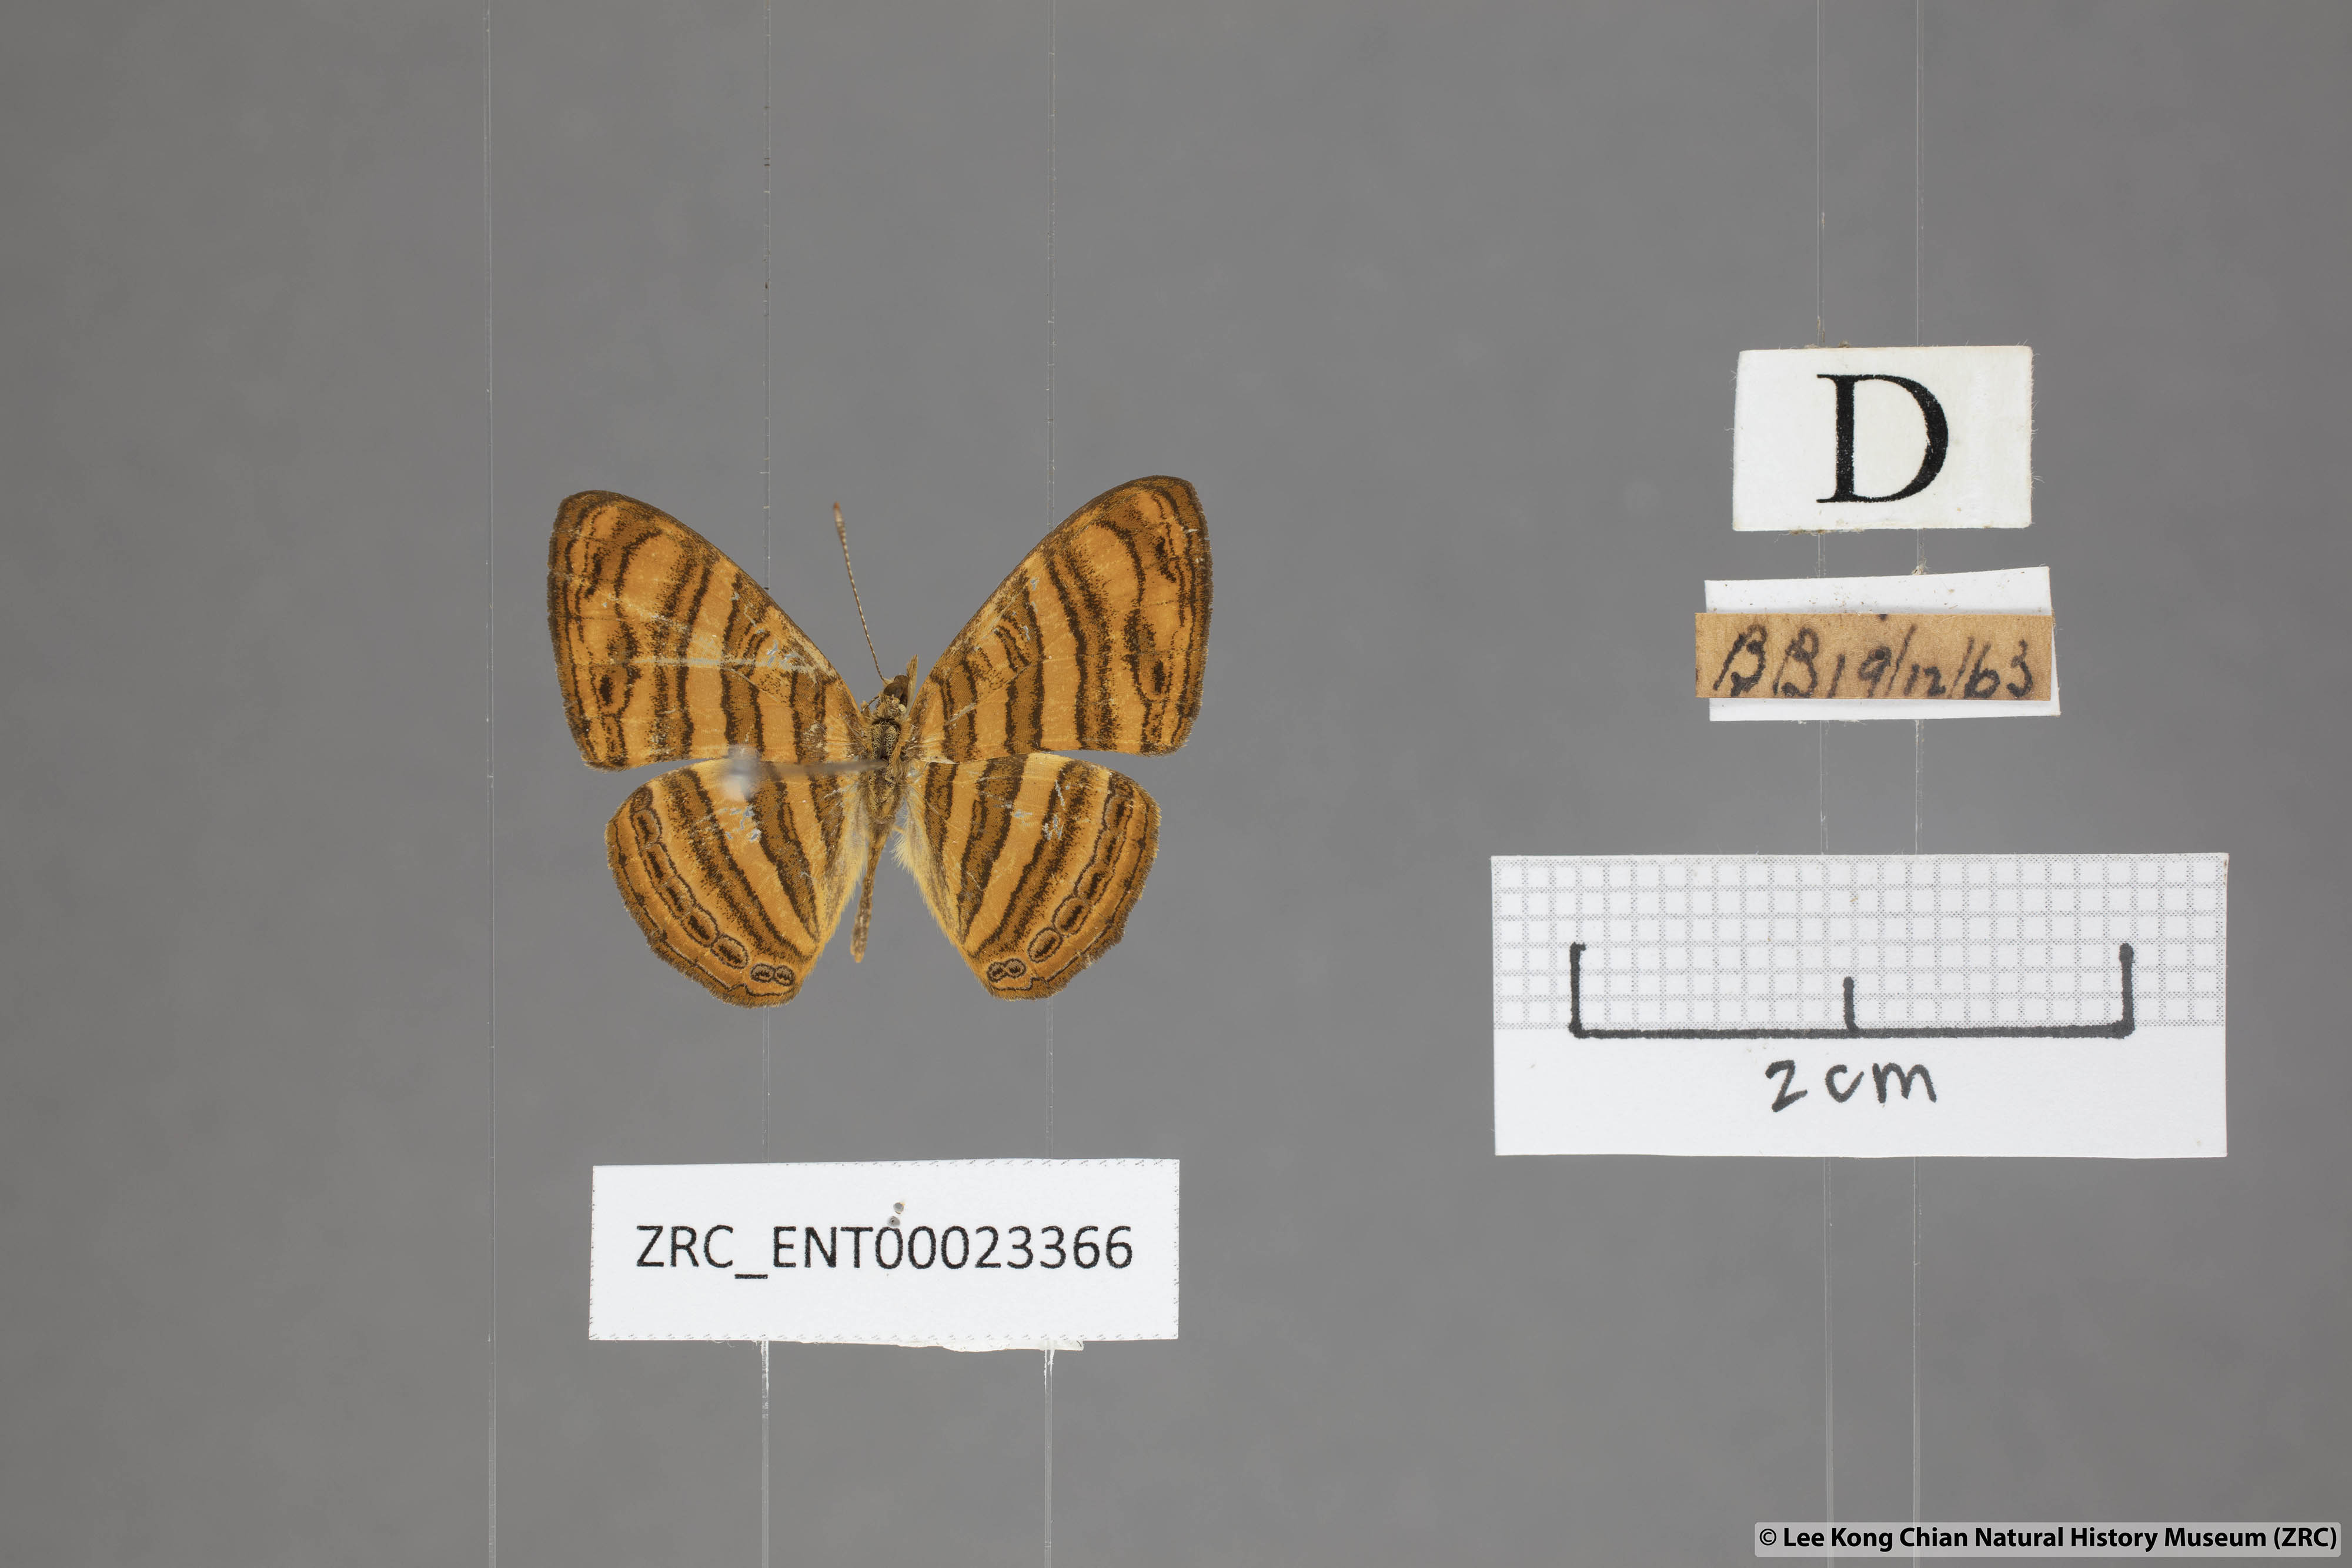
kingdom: Animalia
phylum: Arthropoda
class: Insecta
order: Lepidoptera
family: Nymphalidae
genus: Chersonesia
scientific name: Chersonesia peraka
